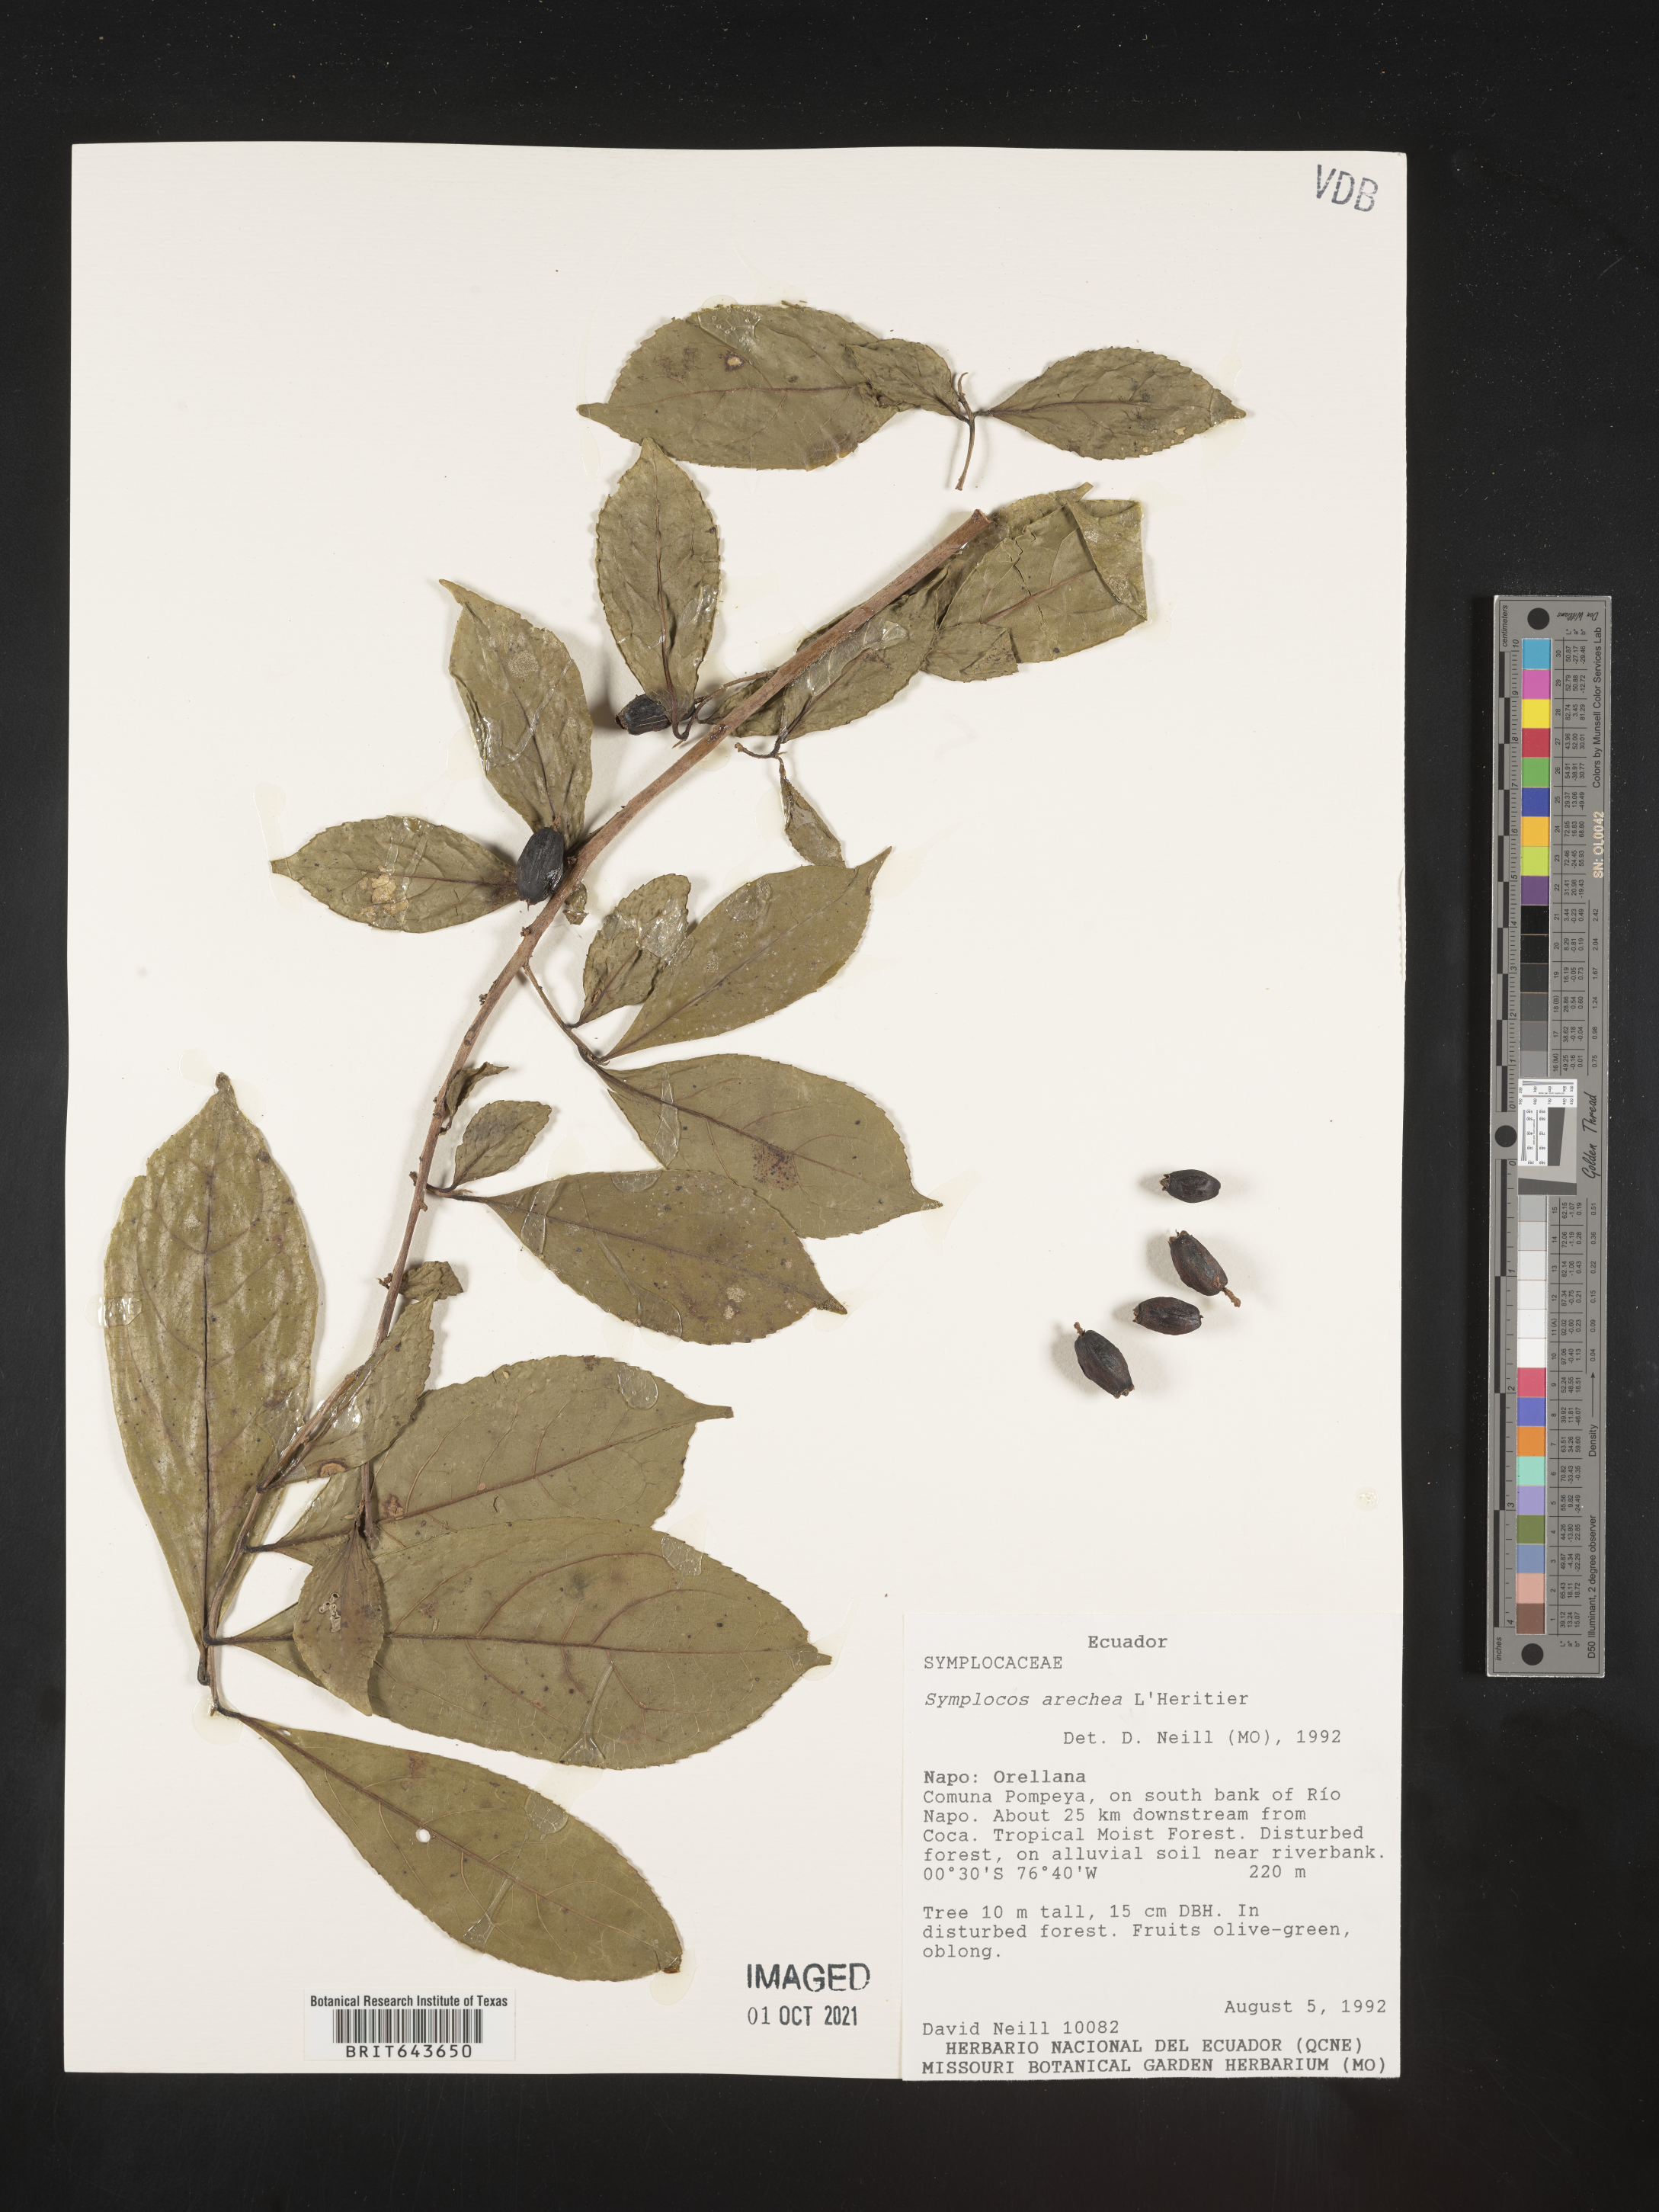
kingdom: Plantae
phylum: Tracheophyta
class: Magnoliopsida
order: Ericales
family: Symplocaceae
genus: Symplocos
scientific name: Symplocos
